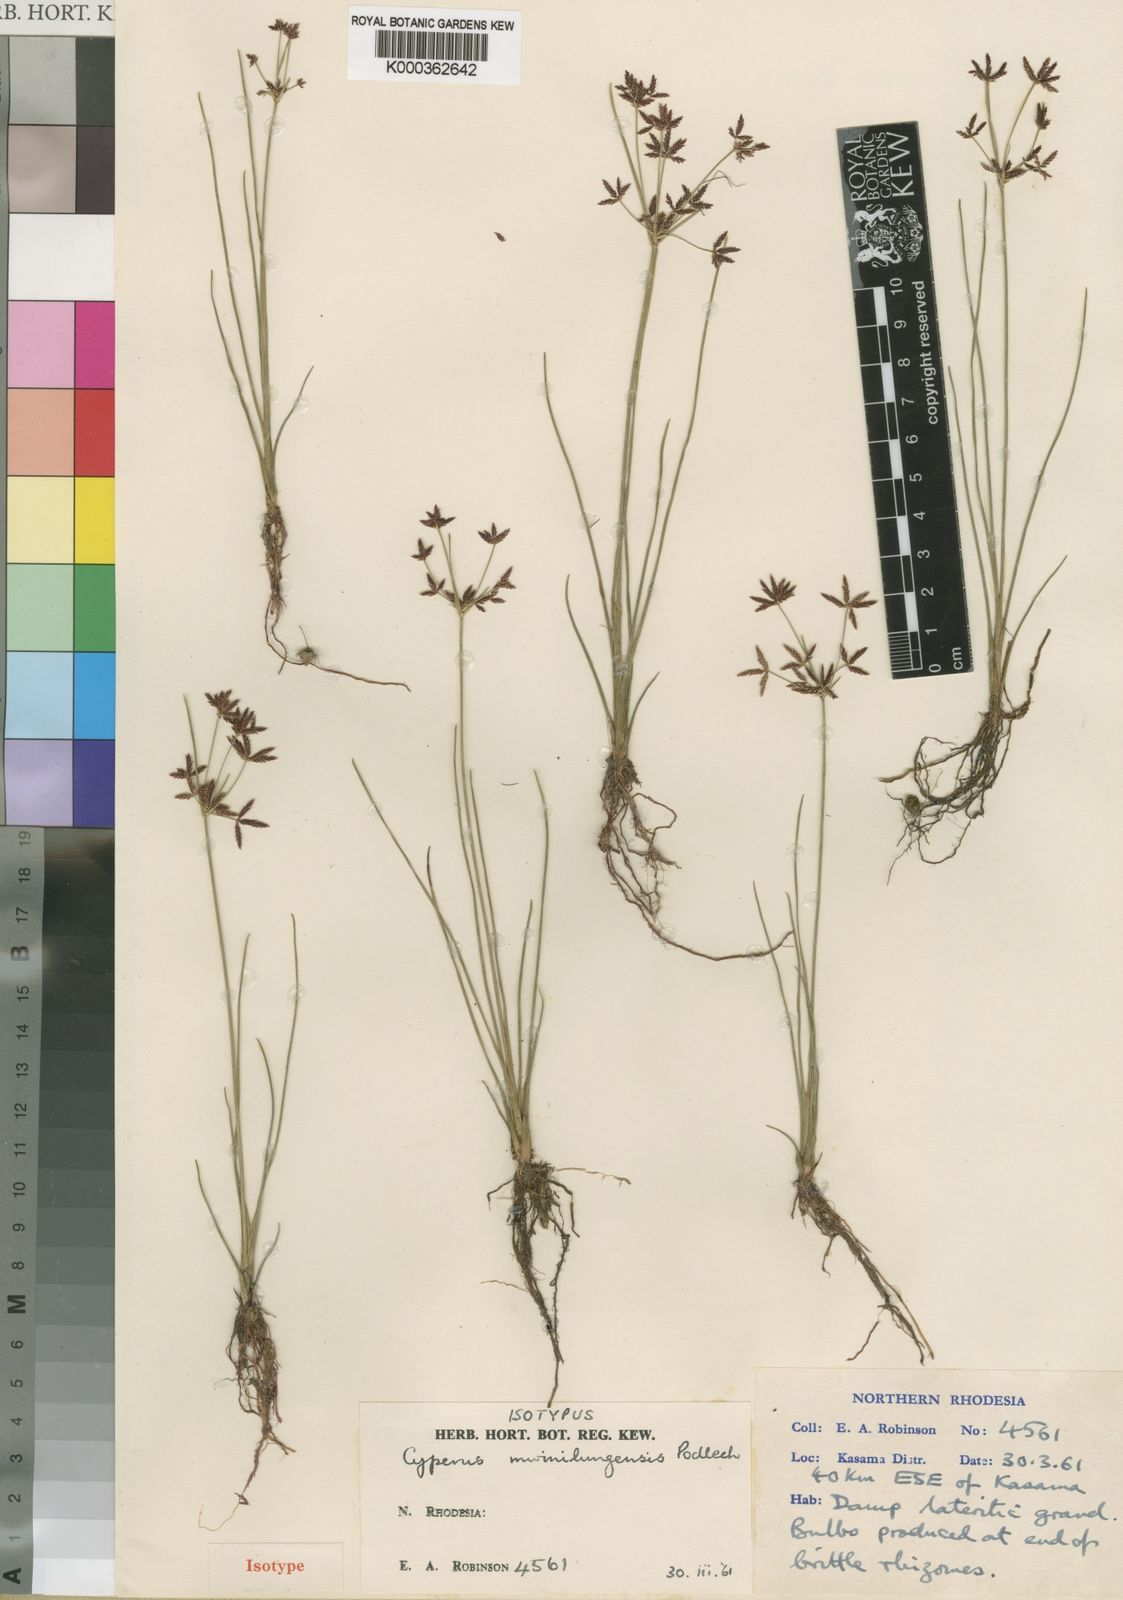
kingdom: Plantae
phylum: Tracheophyta
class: Liliopsida
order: Poales
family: Cyperaceae
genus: Cyperus
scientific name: Cyperus mwinilungensis
